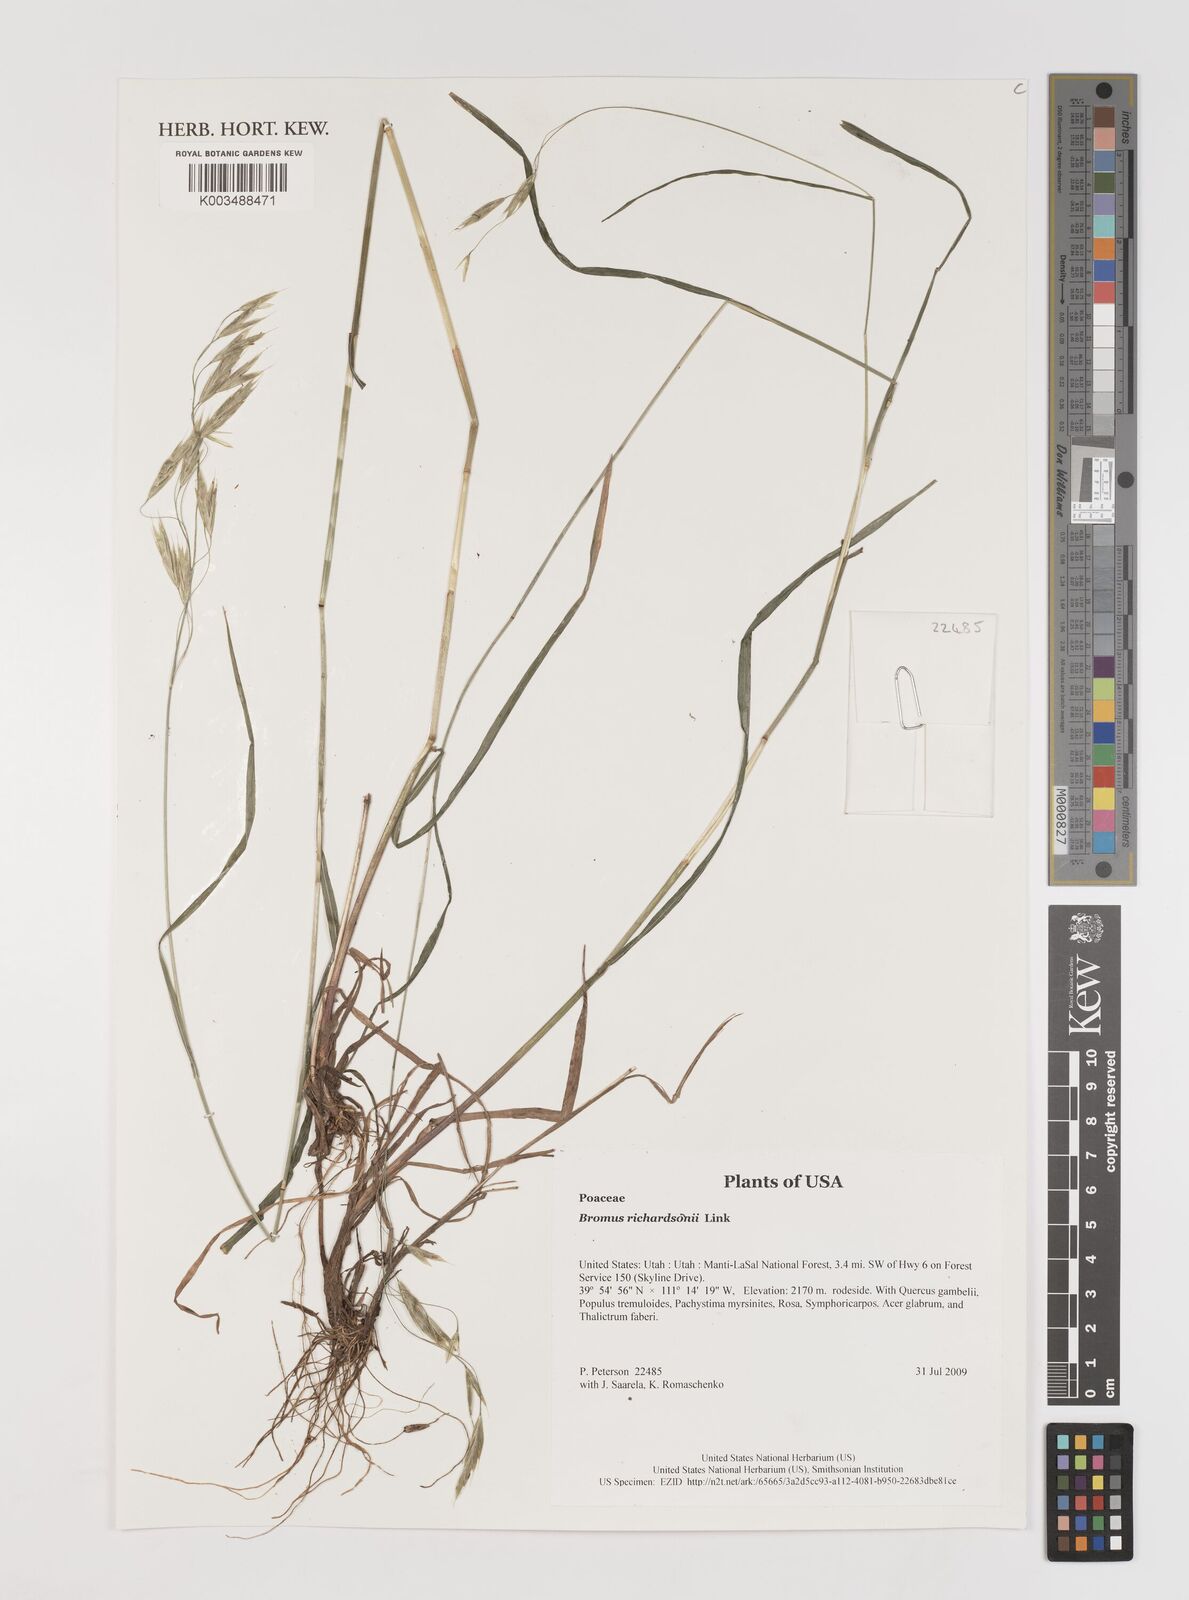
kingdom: Plantae
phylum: Tracheophyta
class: Liliopsida
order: Poales
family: Poaceae
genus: Bromus
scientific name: Bromus richardsonii
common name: Richardson's brome
